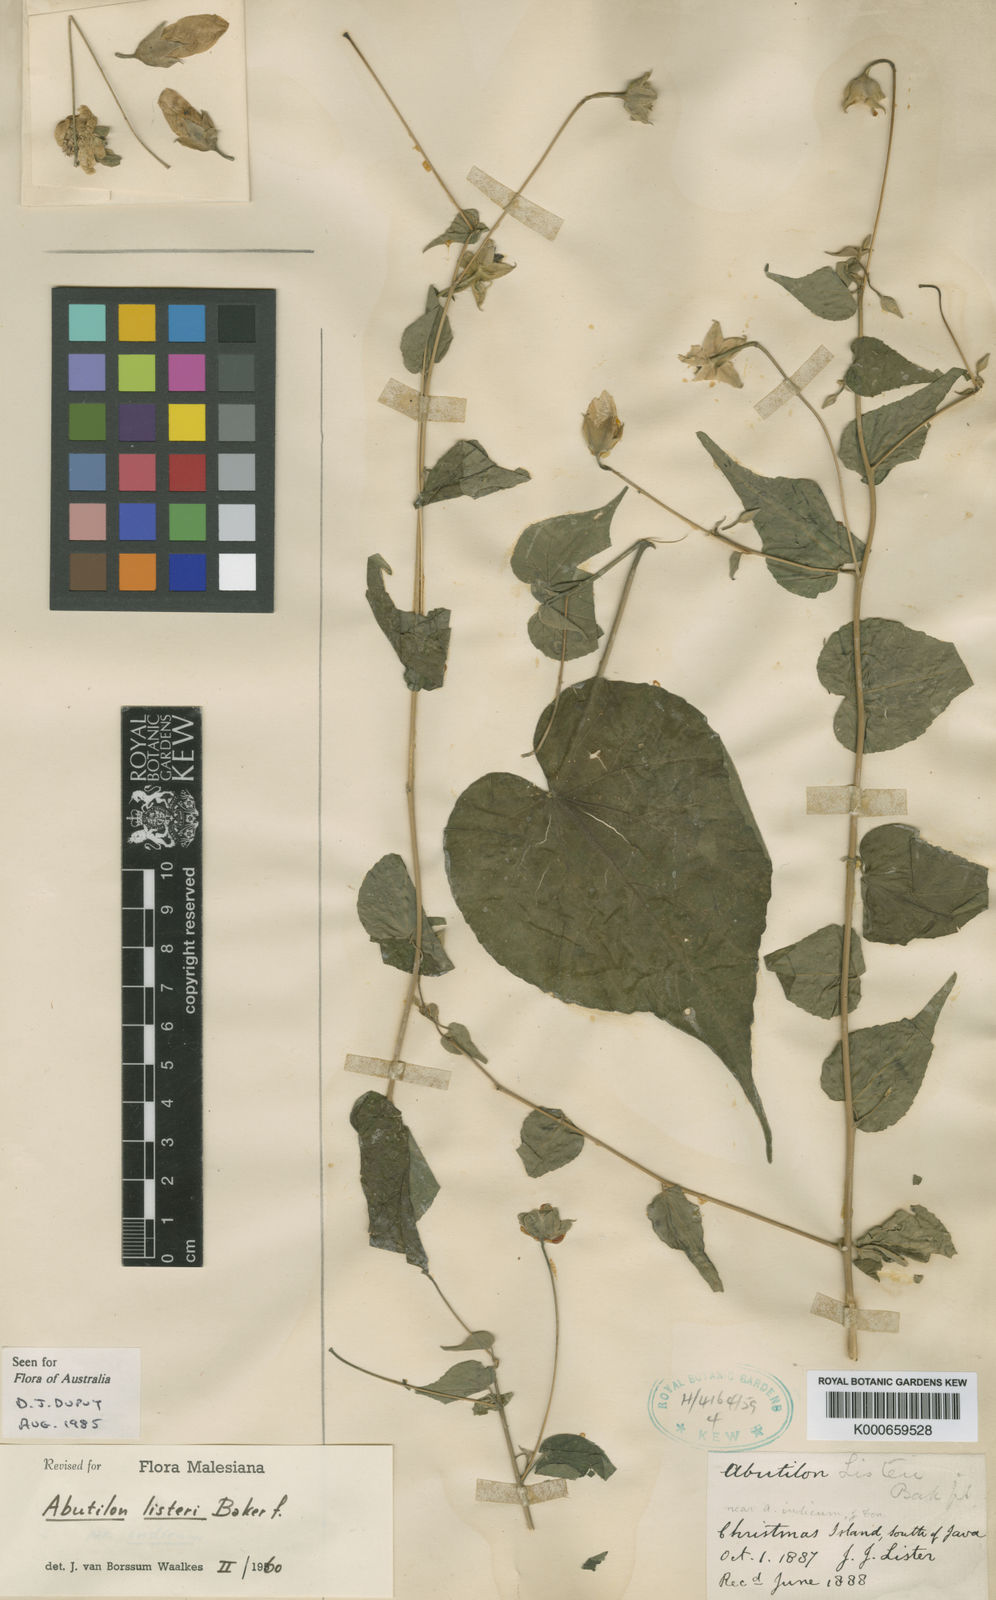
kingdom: Plantae
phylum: Tracheophyta
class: Magnoliopsida
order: Malvales
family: Malvaceae
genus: Abutilon
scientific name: Abutilon listeri
